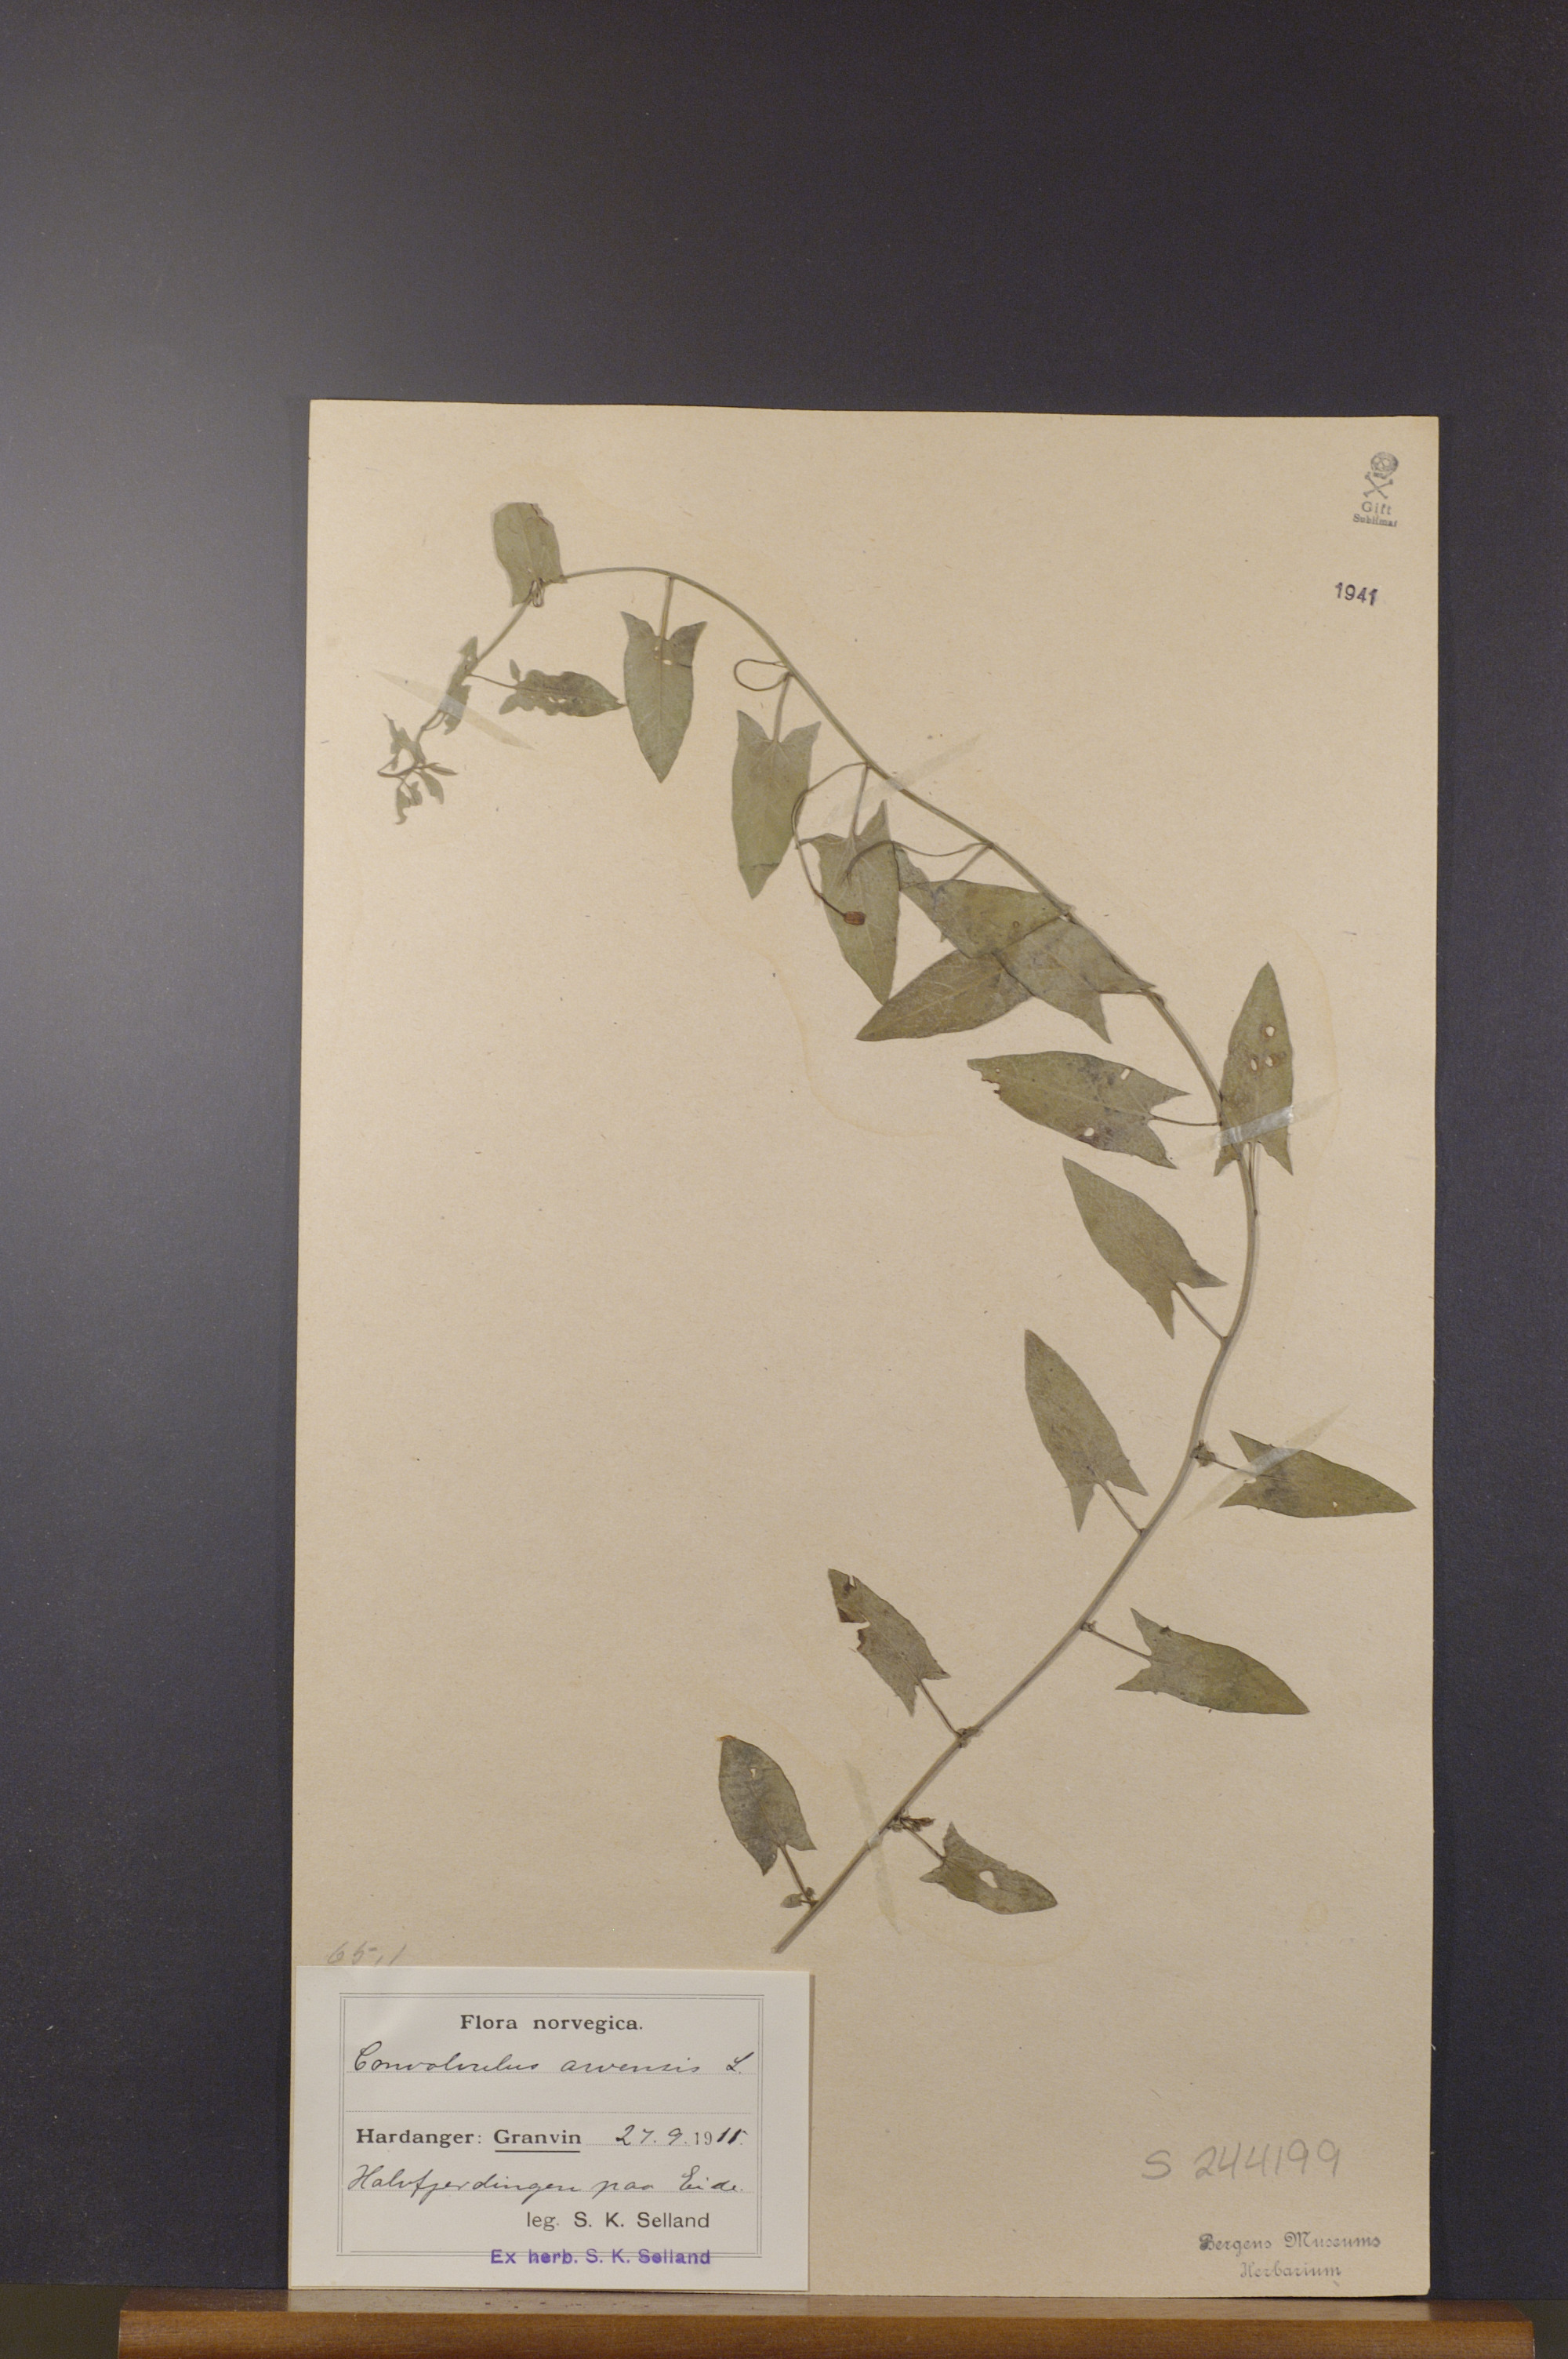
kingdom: Plantae
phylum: Tracheophyta
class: Magnoliopsida
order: Solanales
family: Convolvulaceae
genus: Convolvulus
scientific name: Convolvulus arvensis
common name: Field bindweed
